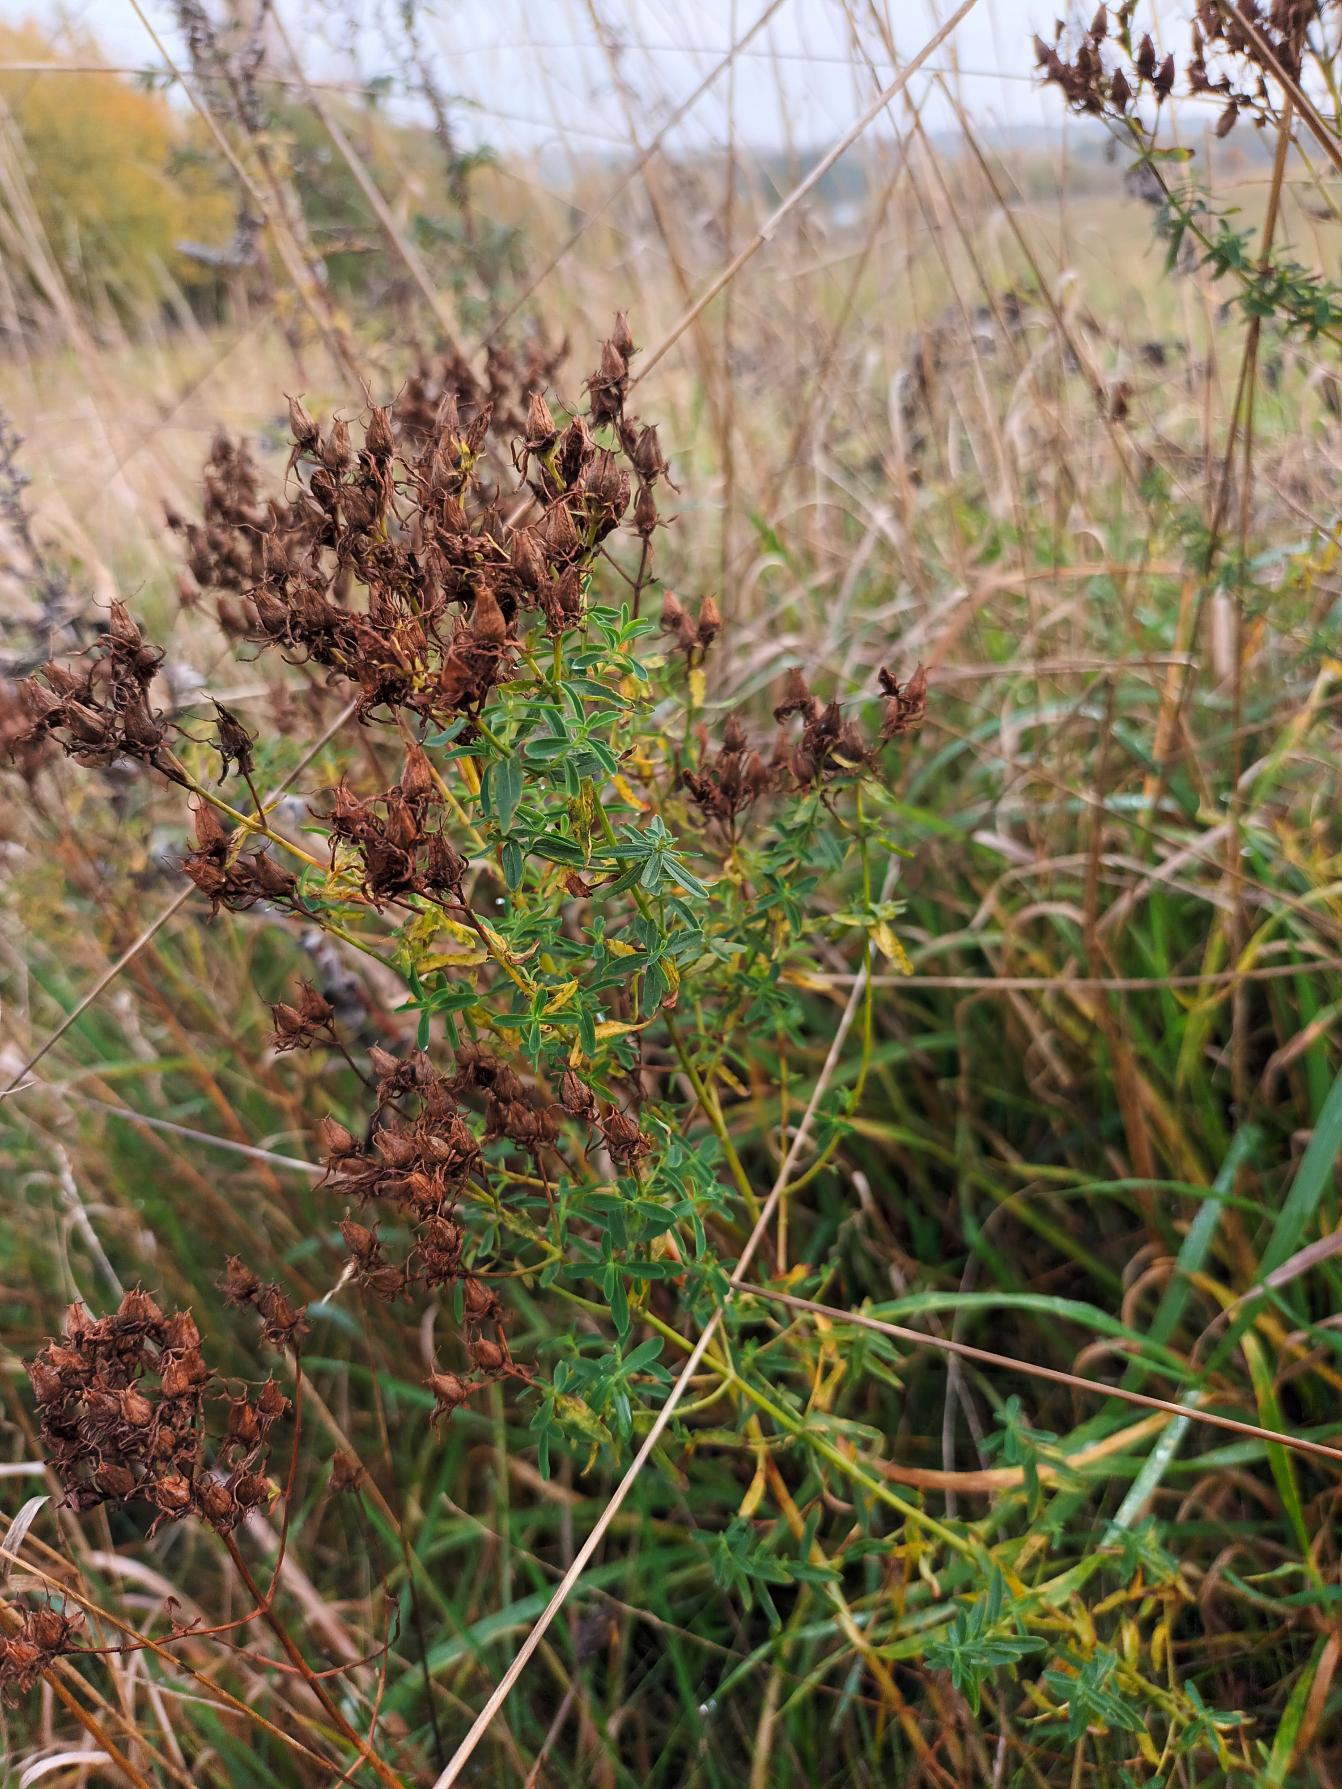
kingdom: Plantae
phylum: Tracheophyta
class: Magnoliopsida
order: Malpighiales
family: Hypericaceae
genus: Hypericum
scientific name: Hypericum perforatum
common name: Prikbladet perikon
